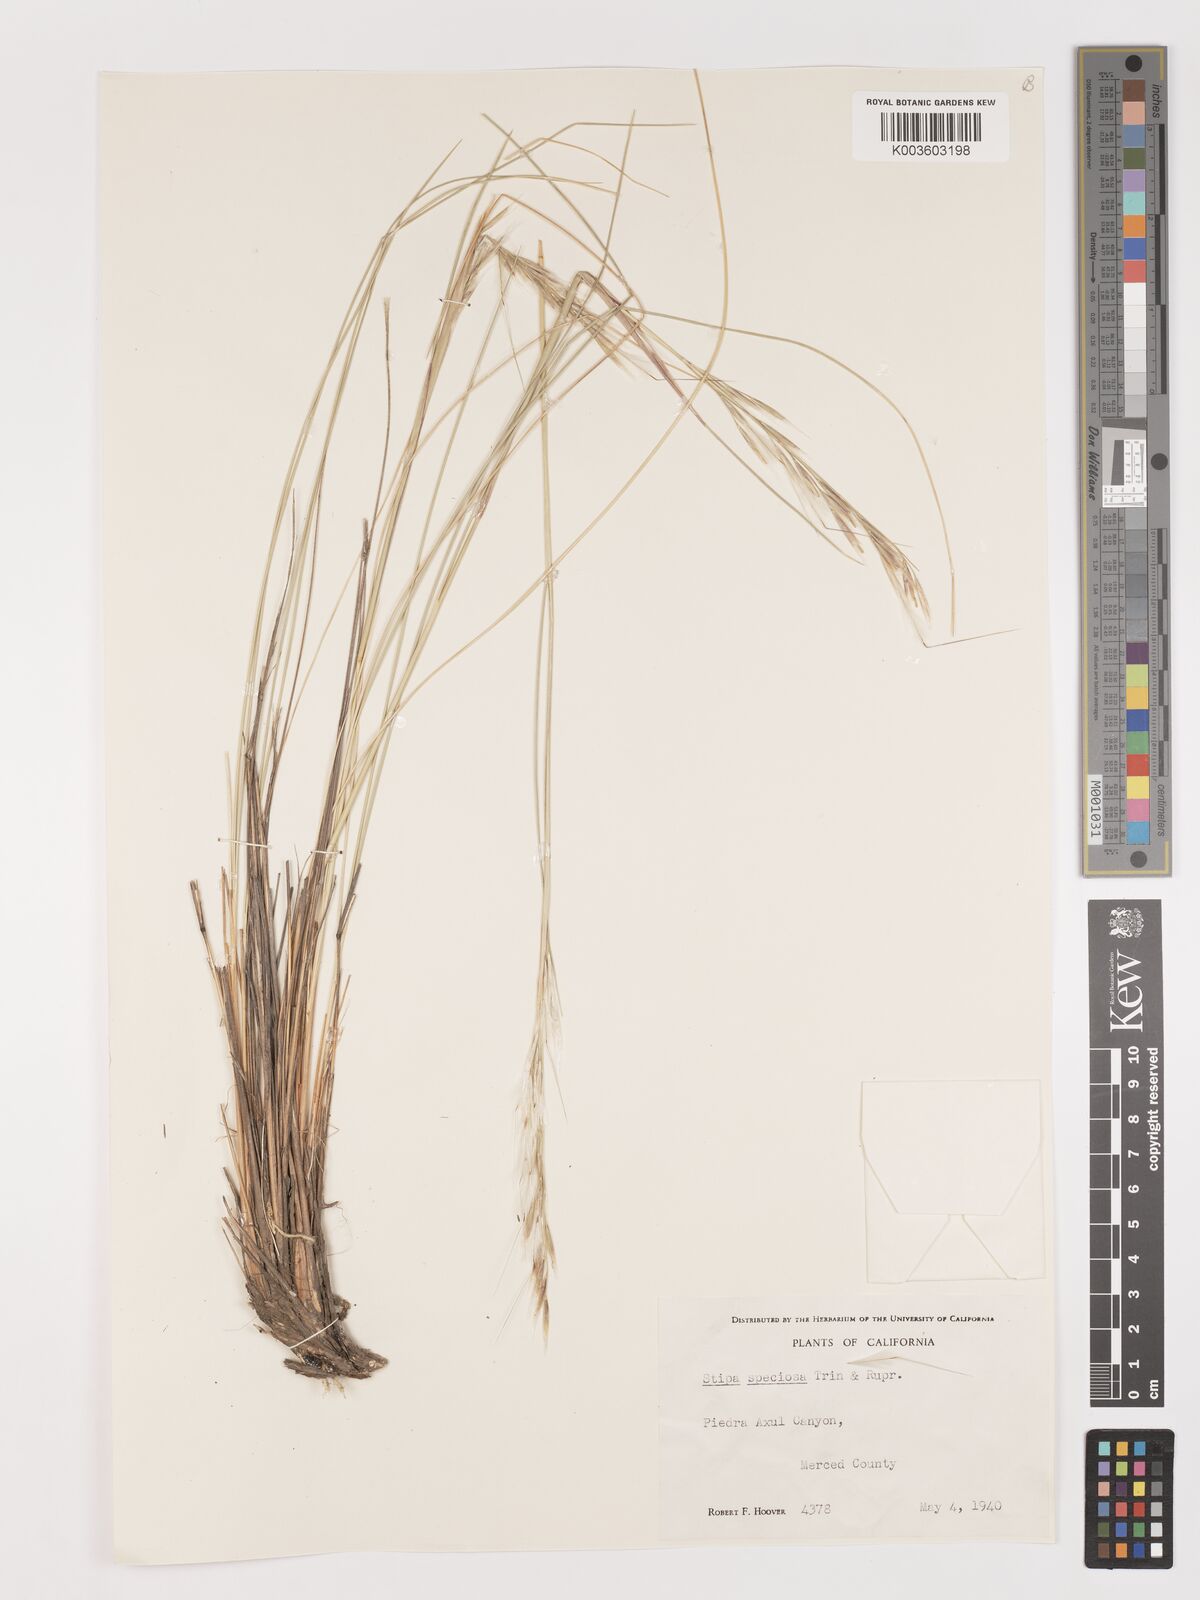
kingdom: Plantae
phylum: Tracheophyta
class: Liliopsida
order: Poales
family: Poaceae
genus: Pappostipa
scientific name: Pappostipa speciosa
